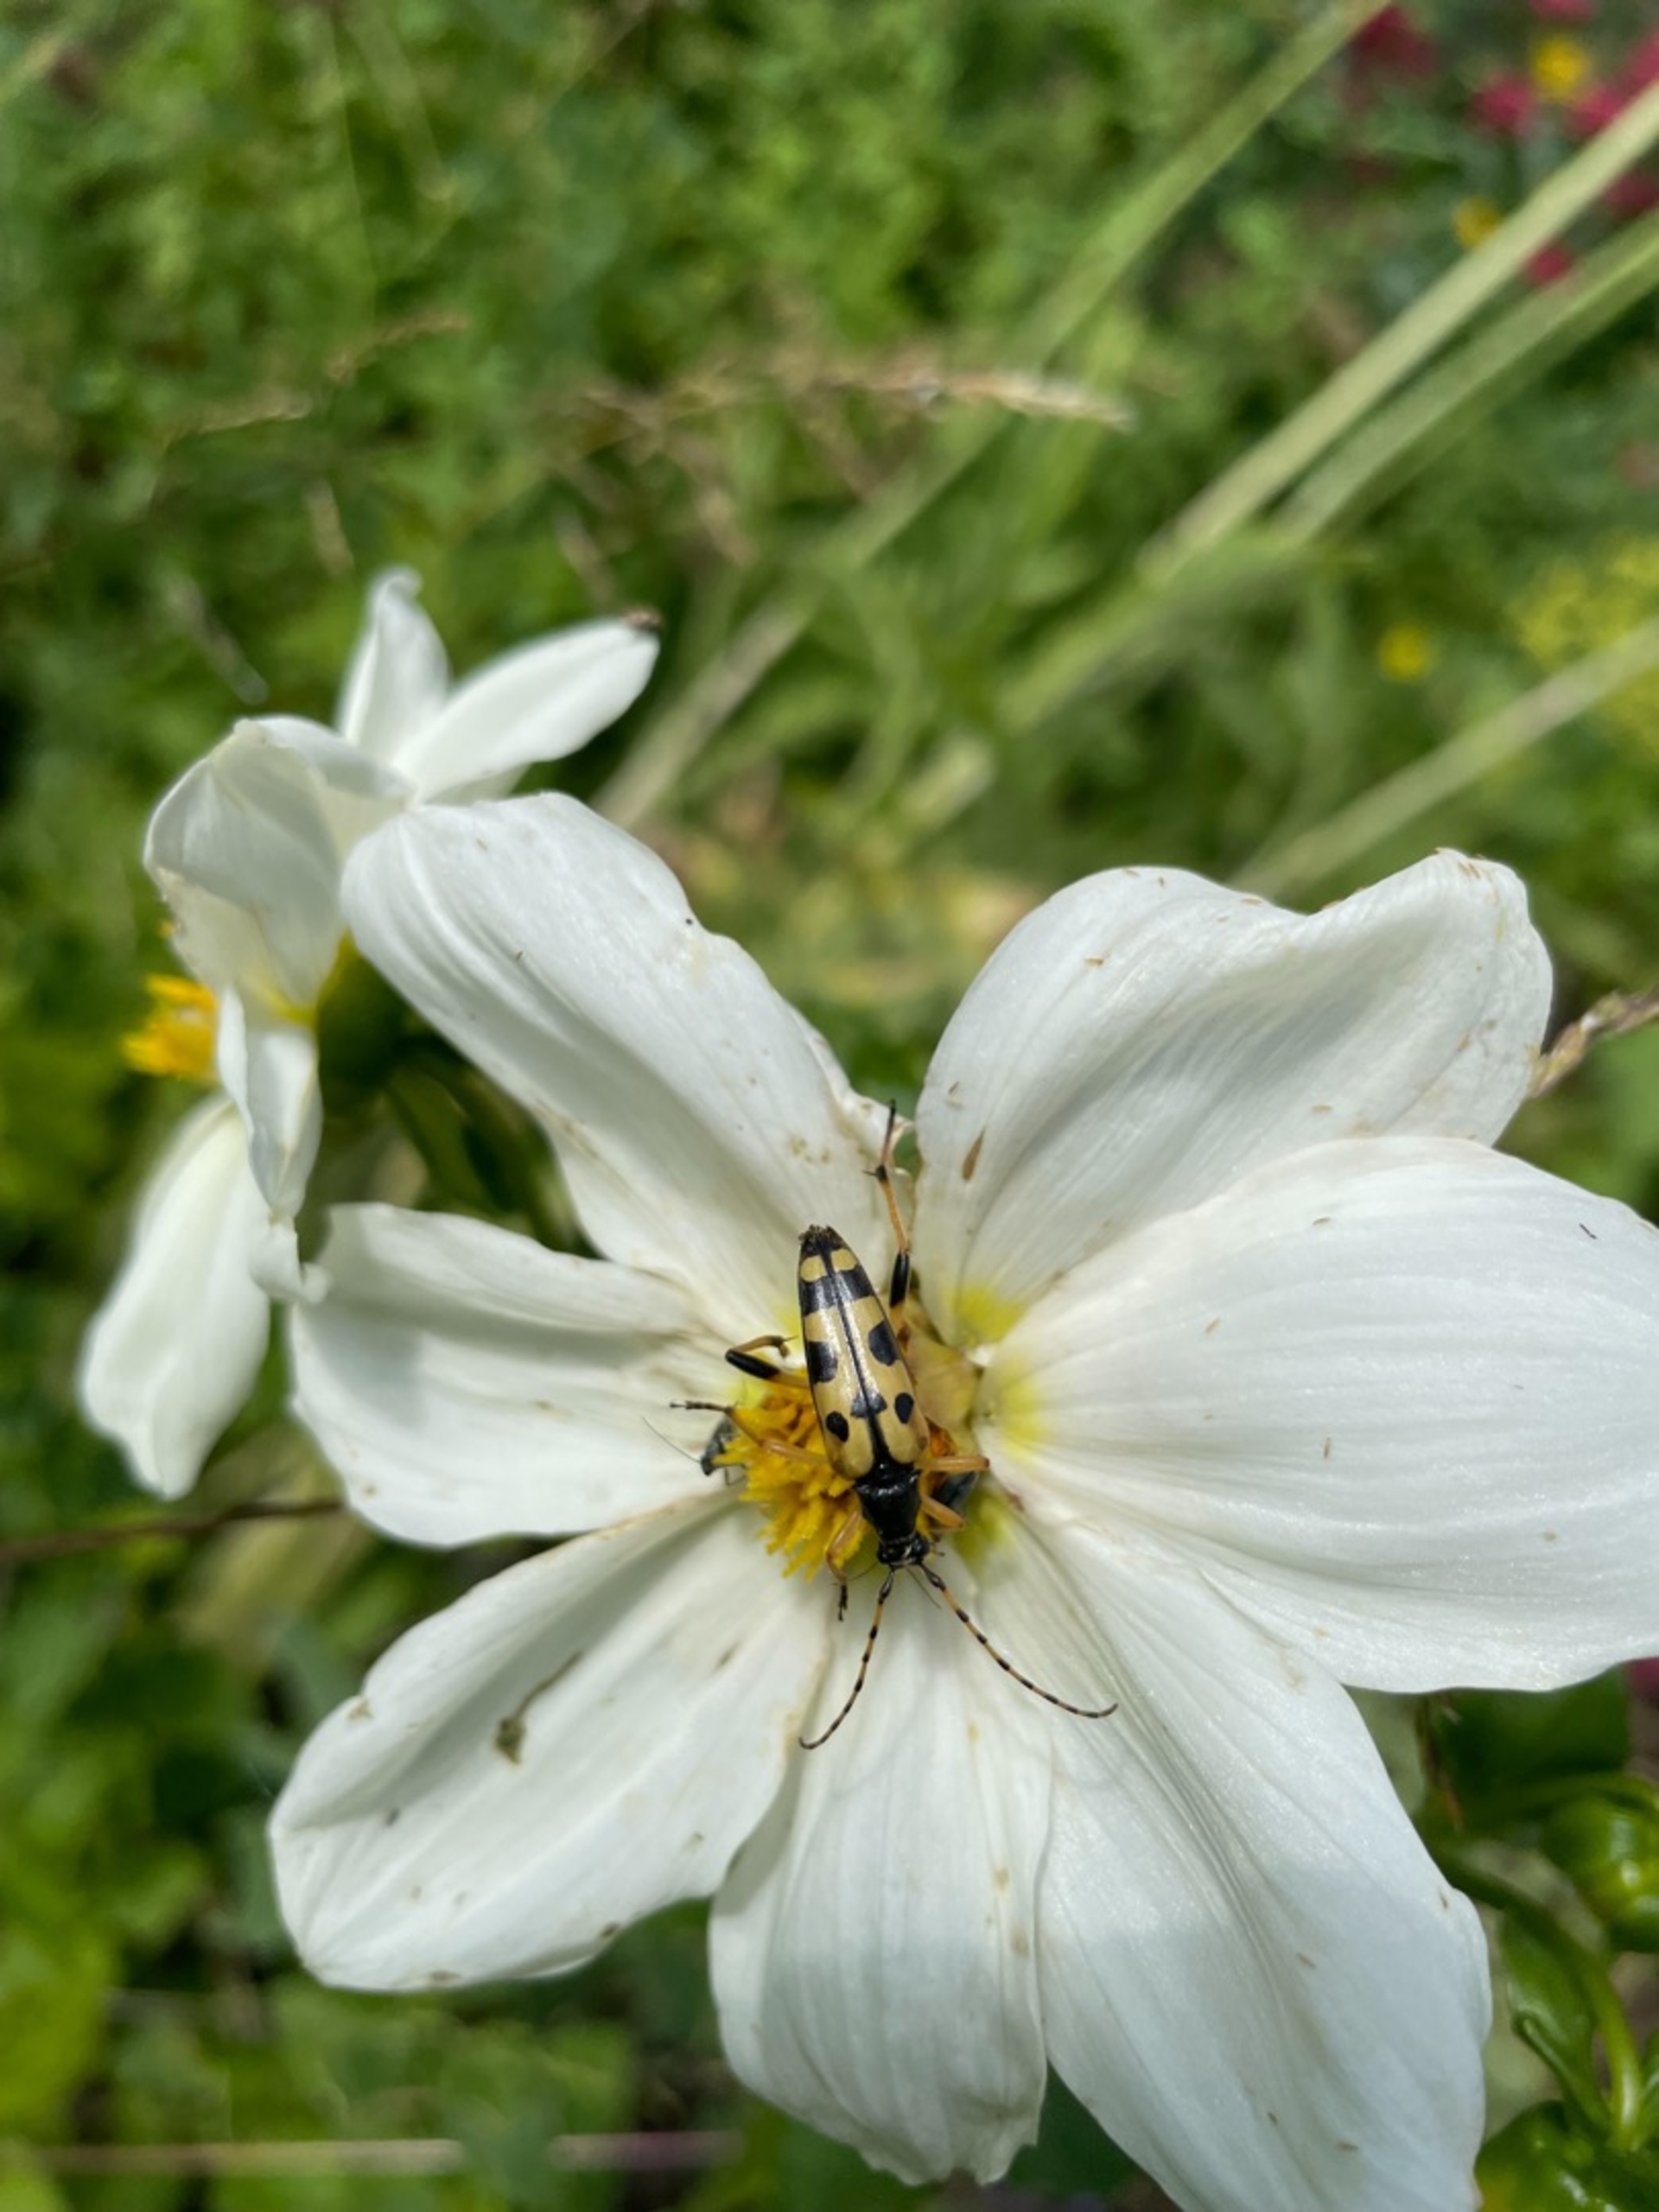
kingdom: Animalia
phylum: Arthropoda
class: Insecta
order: Coleoptera
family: Cerambycidae
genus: Rutpela
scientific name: Rutpela maculata
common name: Sydlig blomsterbuk
